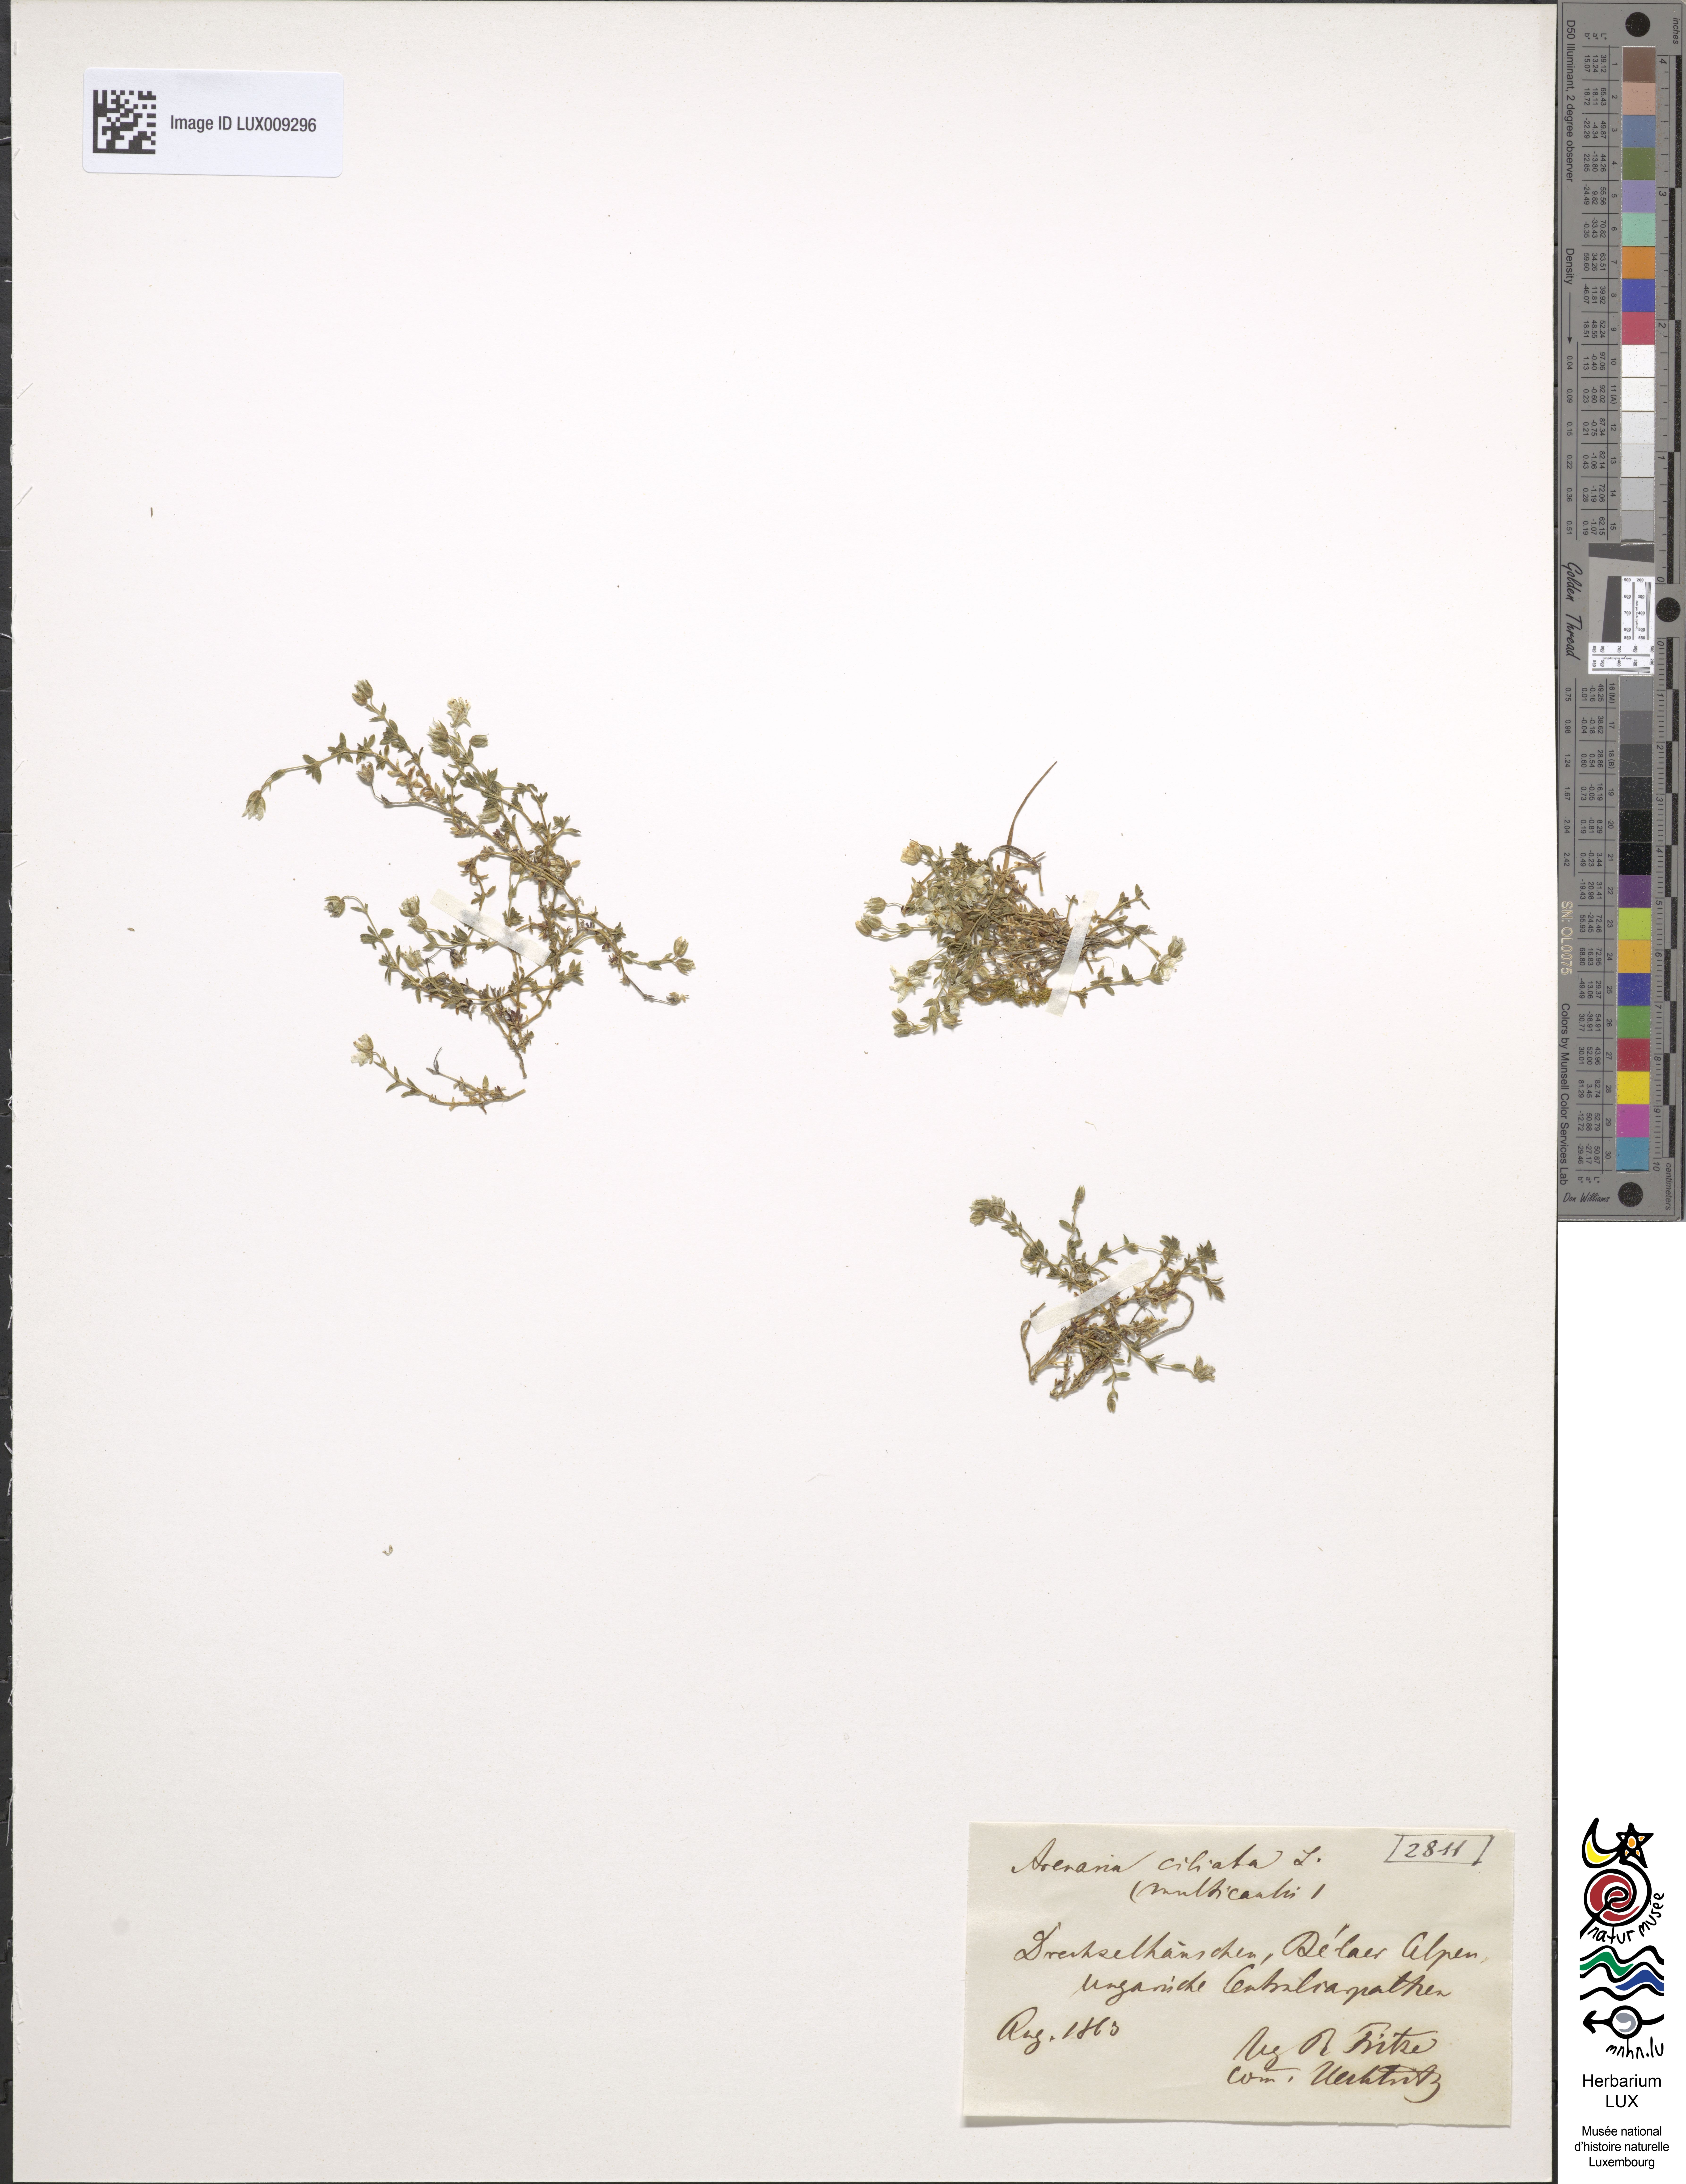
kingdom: Animalia
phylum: Chordata
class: Aves
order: Charadriiformes
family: Scolopacidae
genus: Arenaria
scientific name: Arenaria
